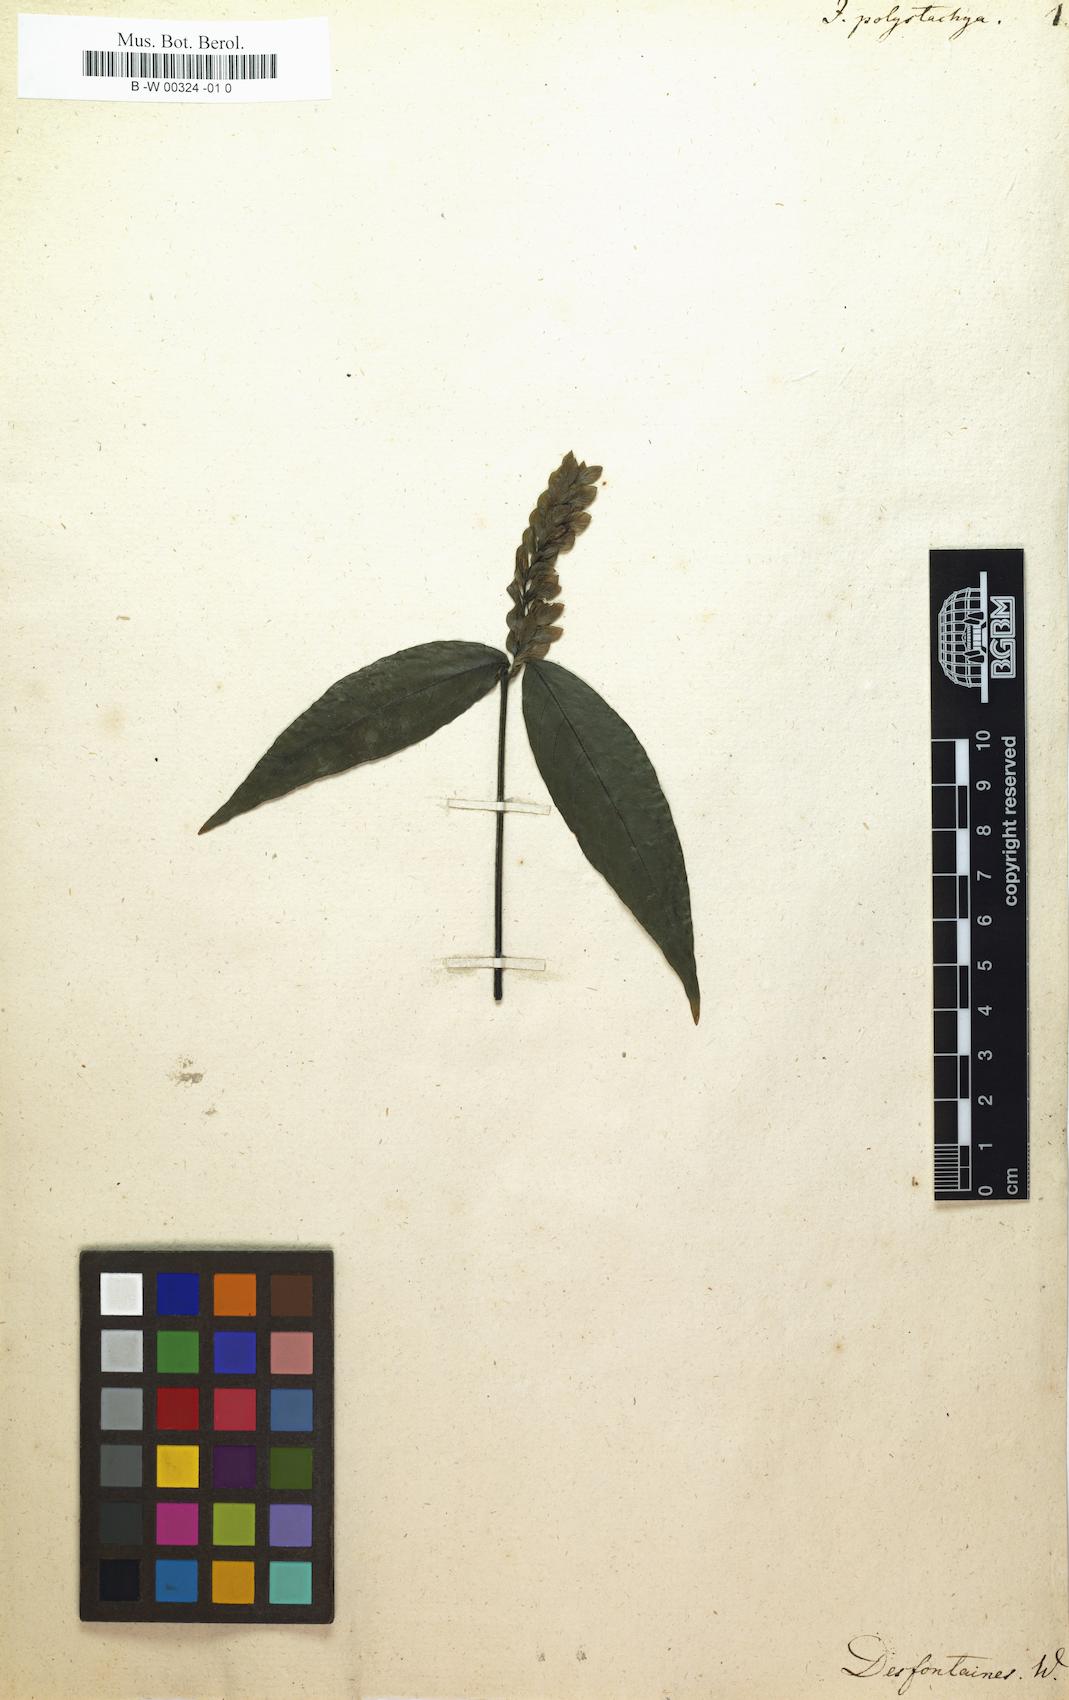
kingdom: Plantae
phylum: Tracheophyta
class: Magnoliopsida
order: Lamiales
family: Acanthaceae
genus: Justicia
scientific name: Justicia polystachya
